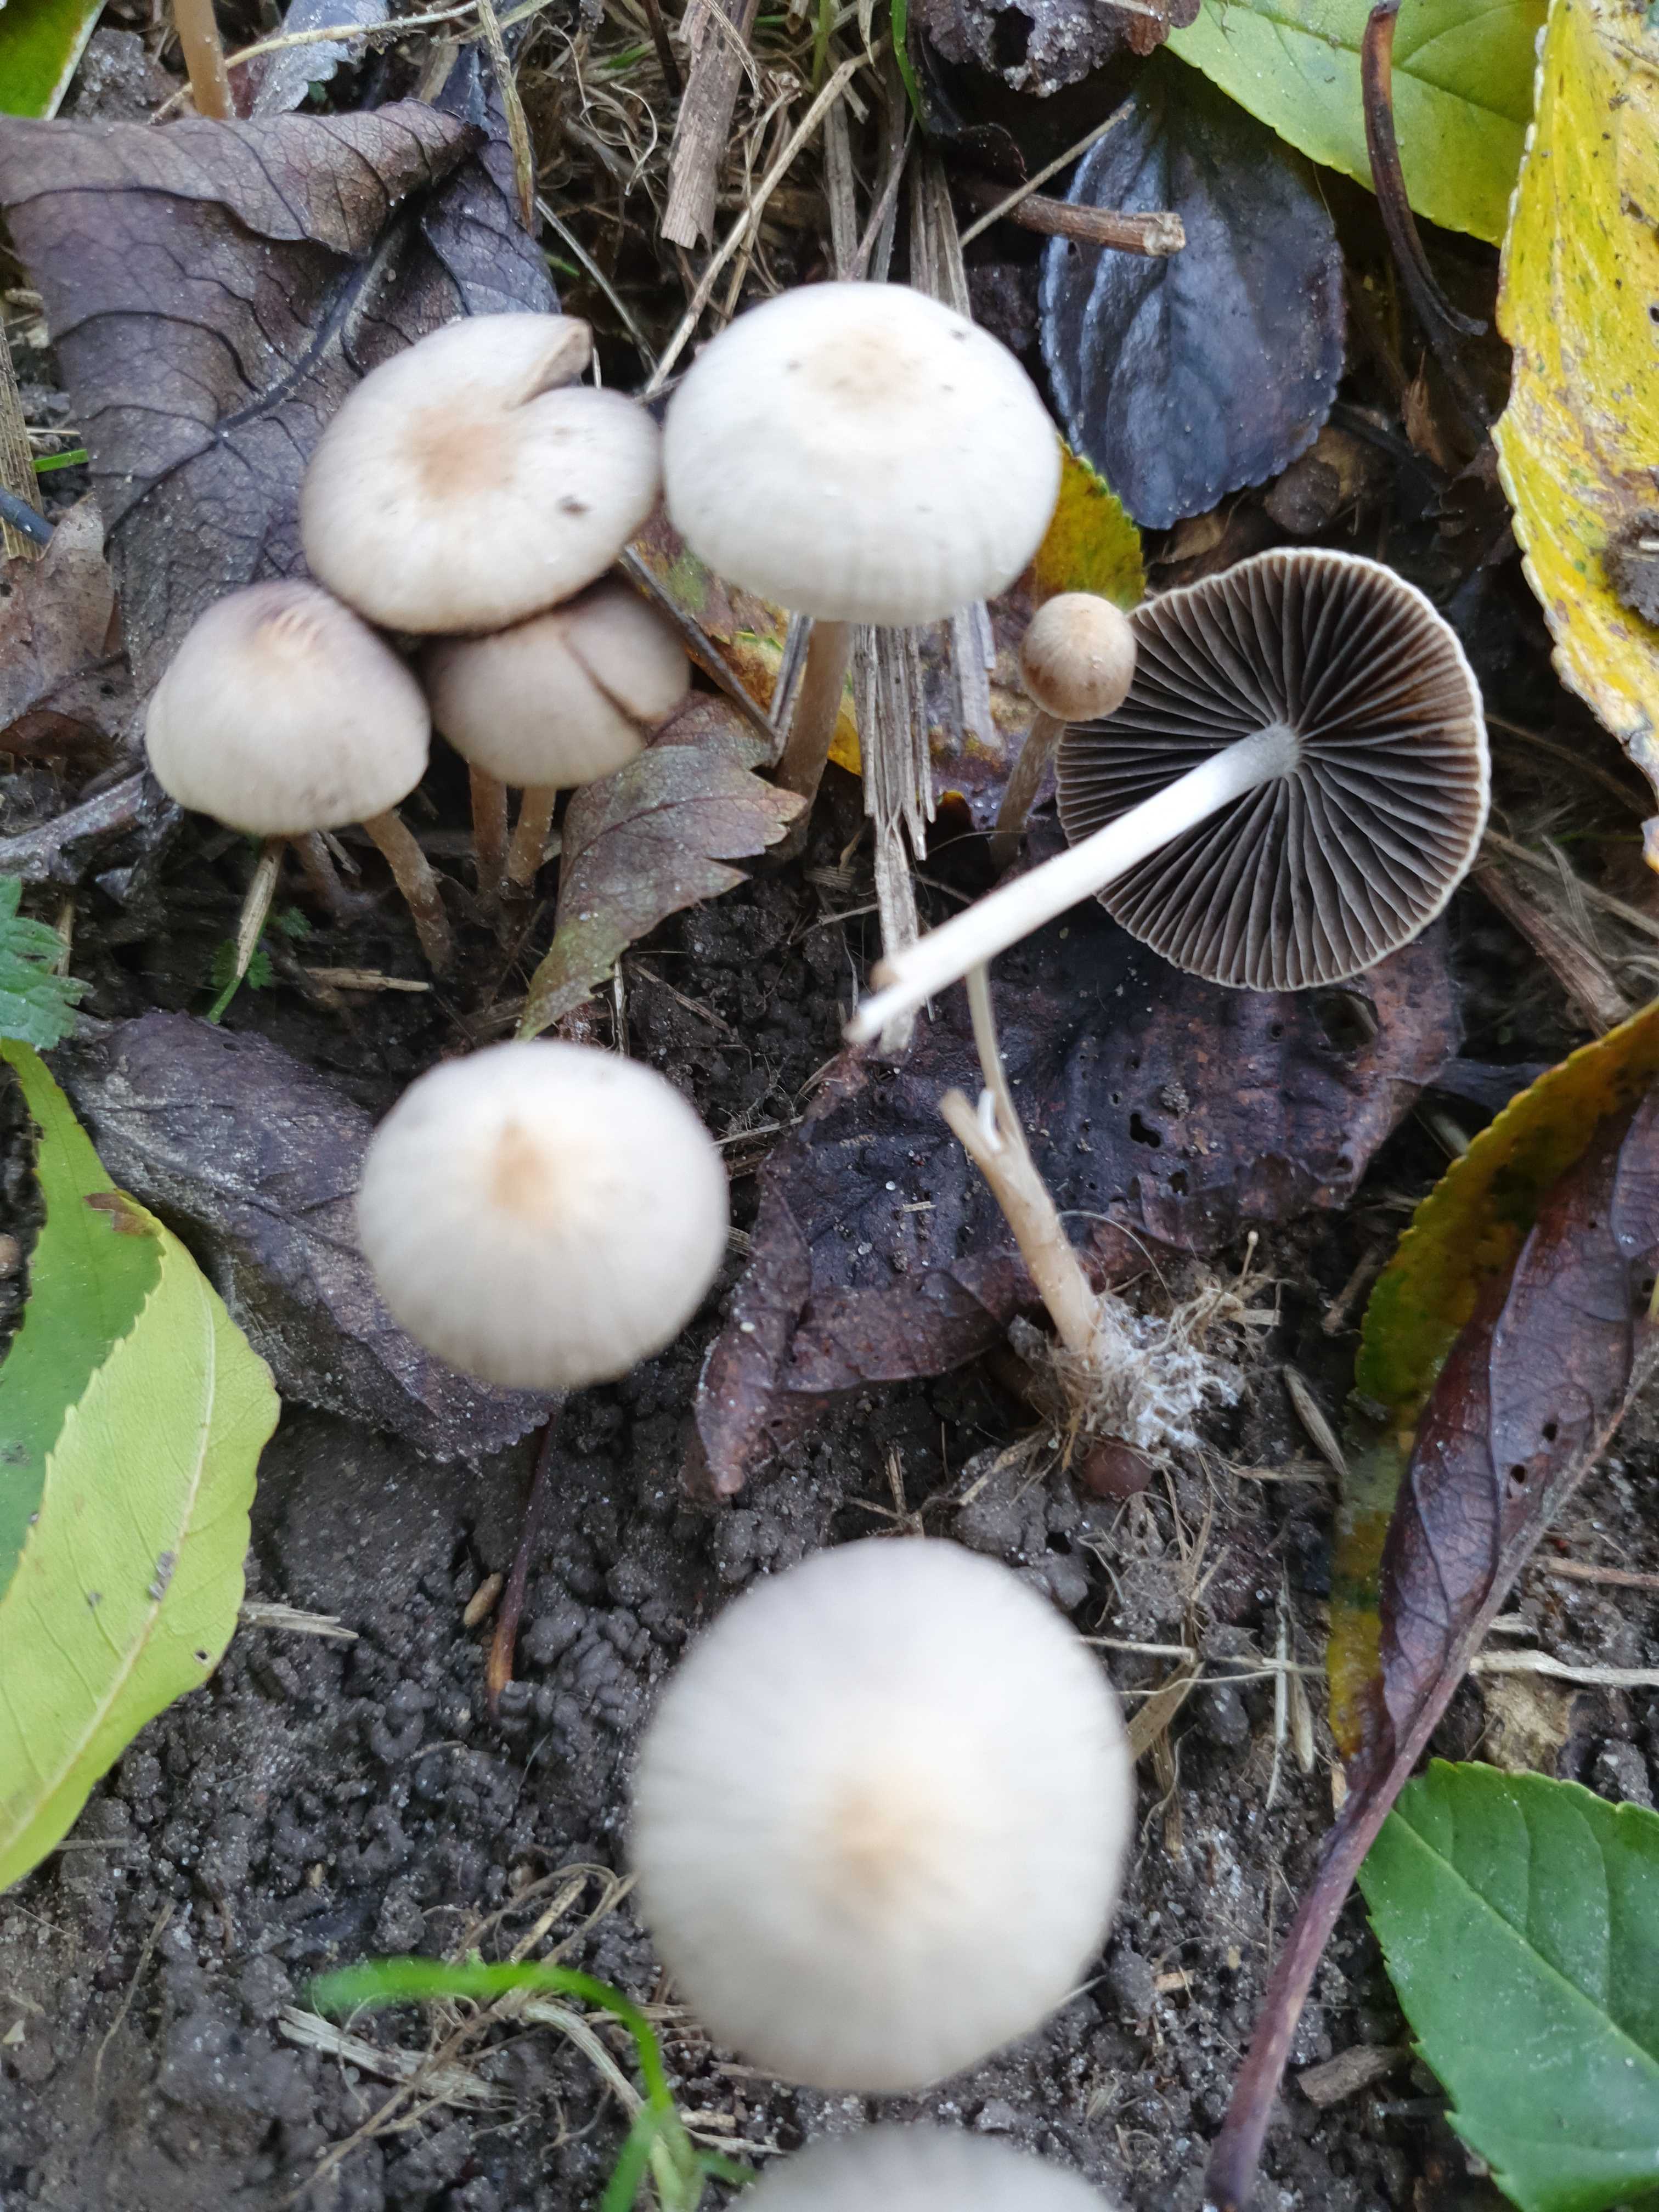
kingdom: Fungi
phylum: Basidiomycota
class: Agaricomycetes
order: Agaricales
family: Psathyrellaceae
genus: Psathyrella
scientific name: Psathyrella
